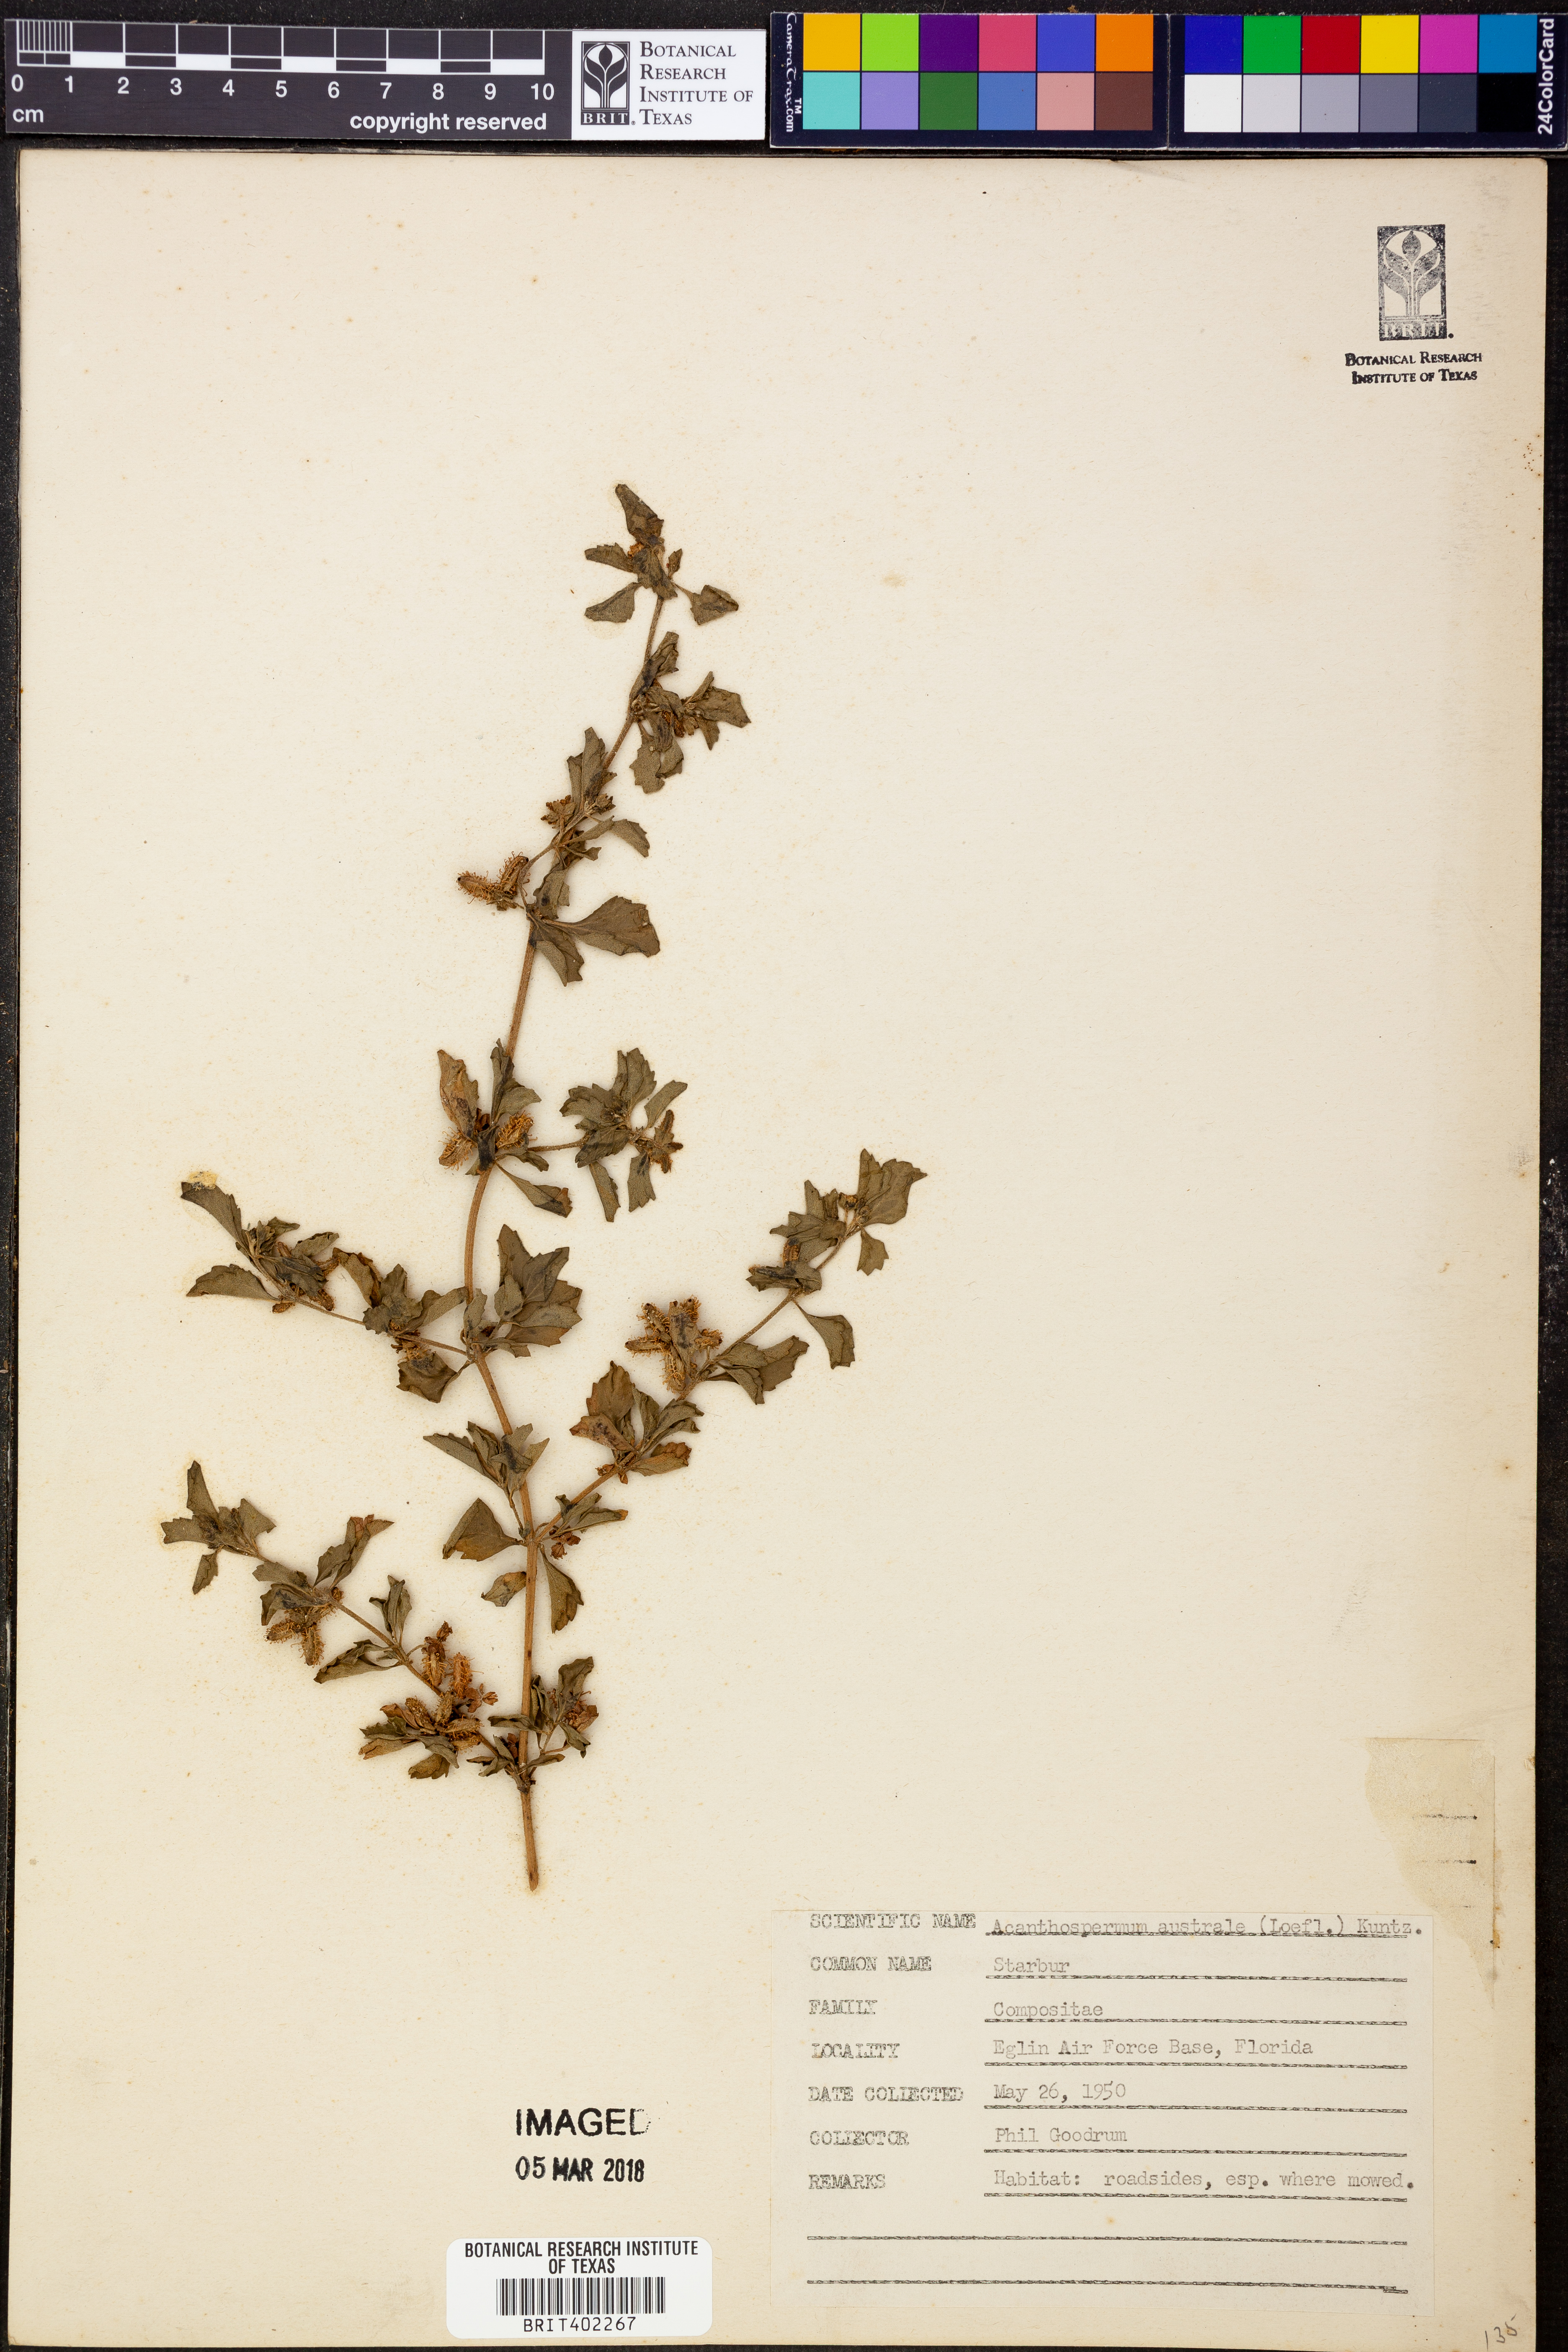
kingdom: Plantae
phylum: Tracheophyta
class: Magnoliopsida
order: Asterales
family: Asteraceae
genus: Acanthospermum
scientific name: Acanthospermum australe
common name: Paraguayan starbur
